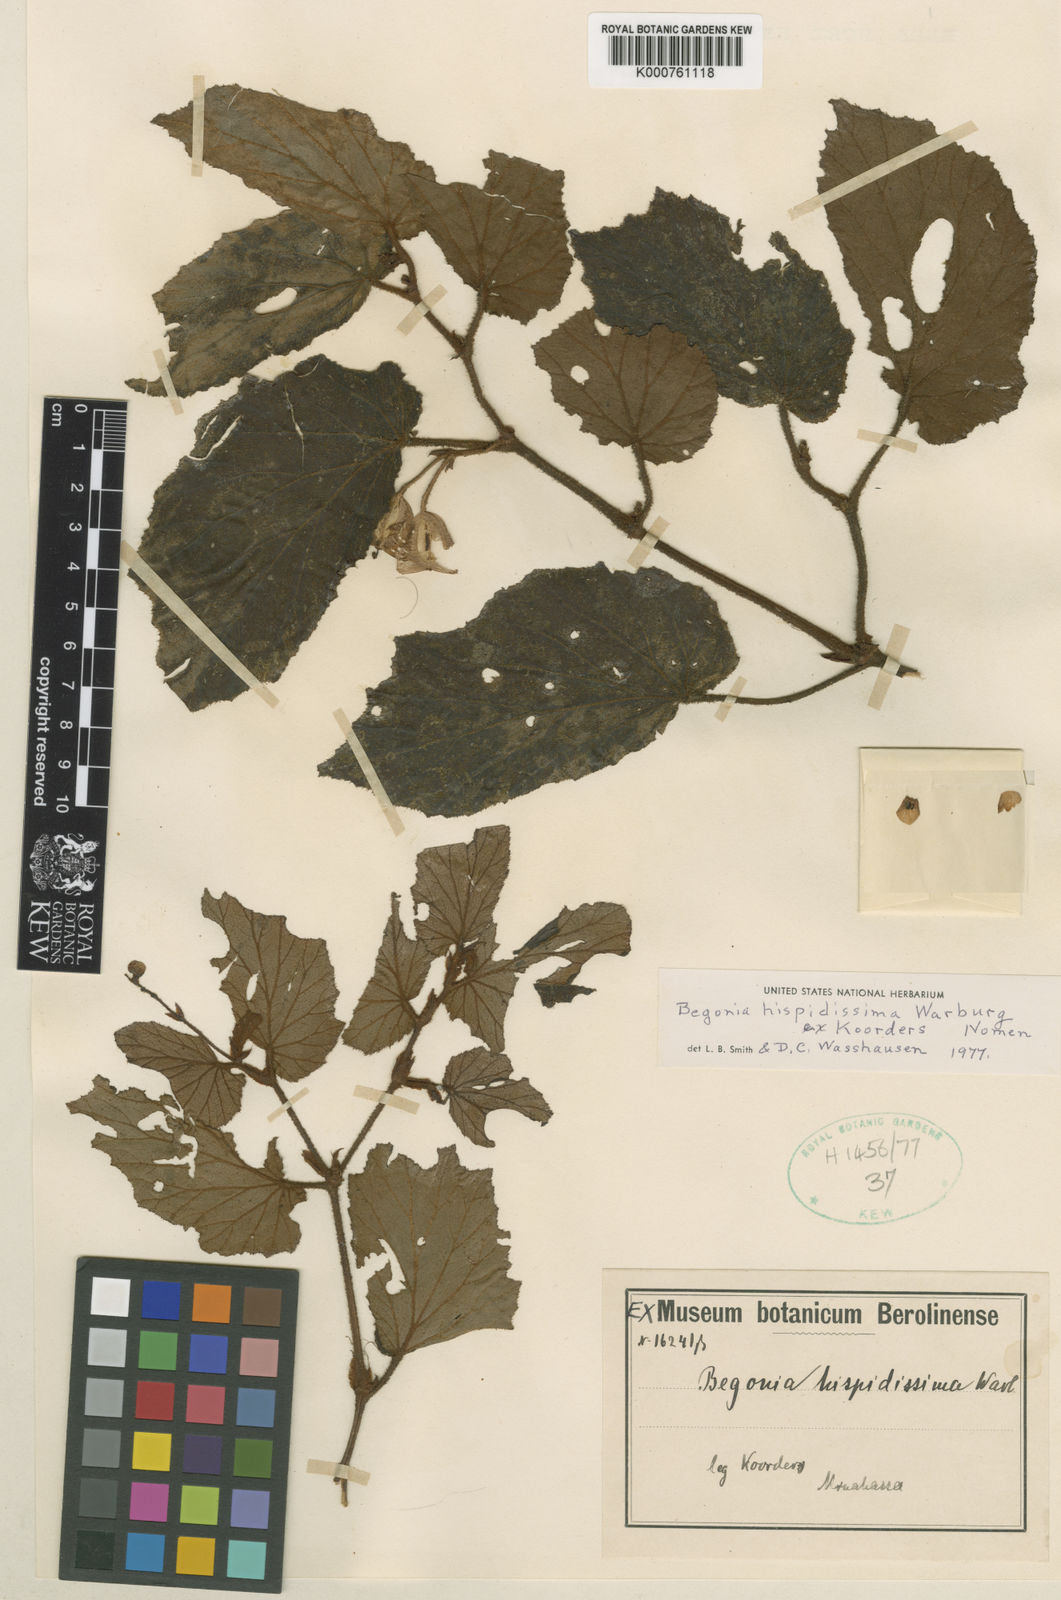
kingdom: Plantae
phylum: Tracheophyta
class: Magnoliopsida
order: Cucurbitales
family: Begoniaceae
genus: Begonia
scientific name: Begonia hispidissima
